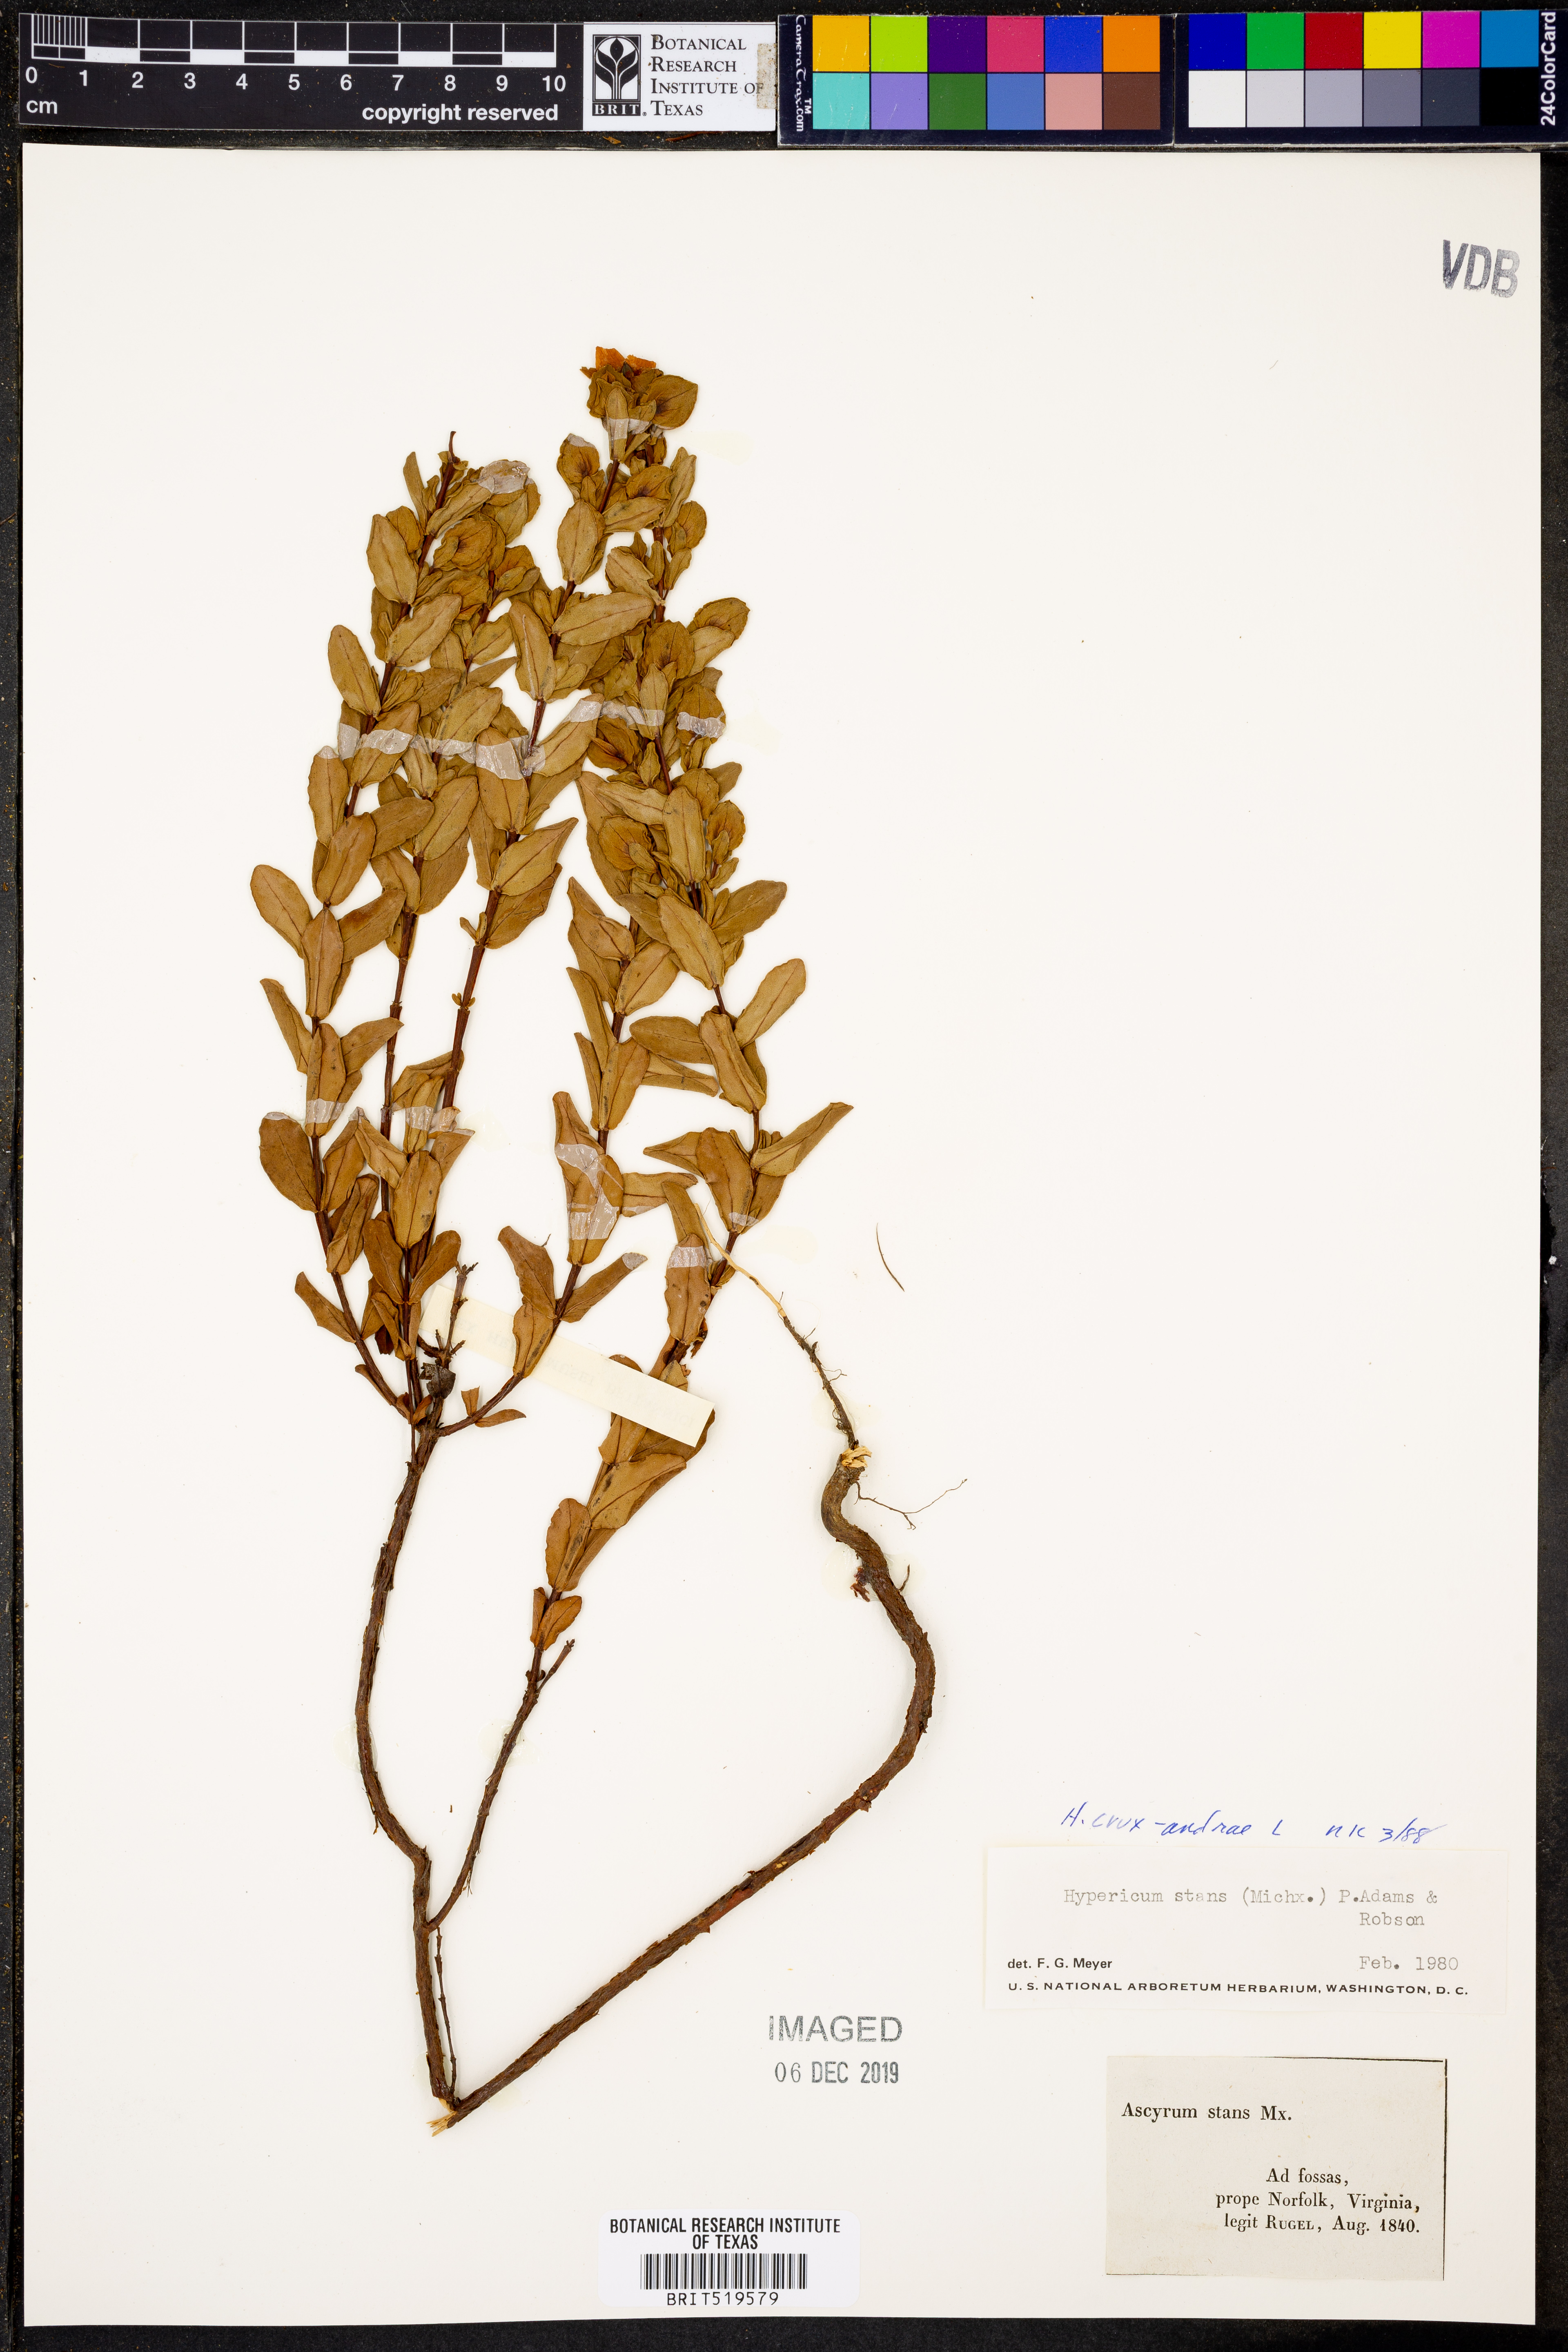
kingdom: Plantae
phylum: Tracheophyta
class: Magnoliopsida
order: Malpighiales
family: Hypericaceae
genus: Hypericum
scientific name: Hypericum crux-andreae
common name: St.-peter's-wort
